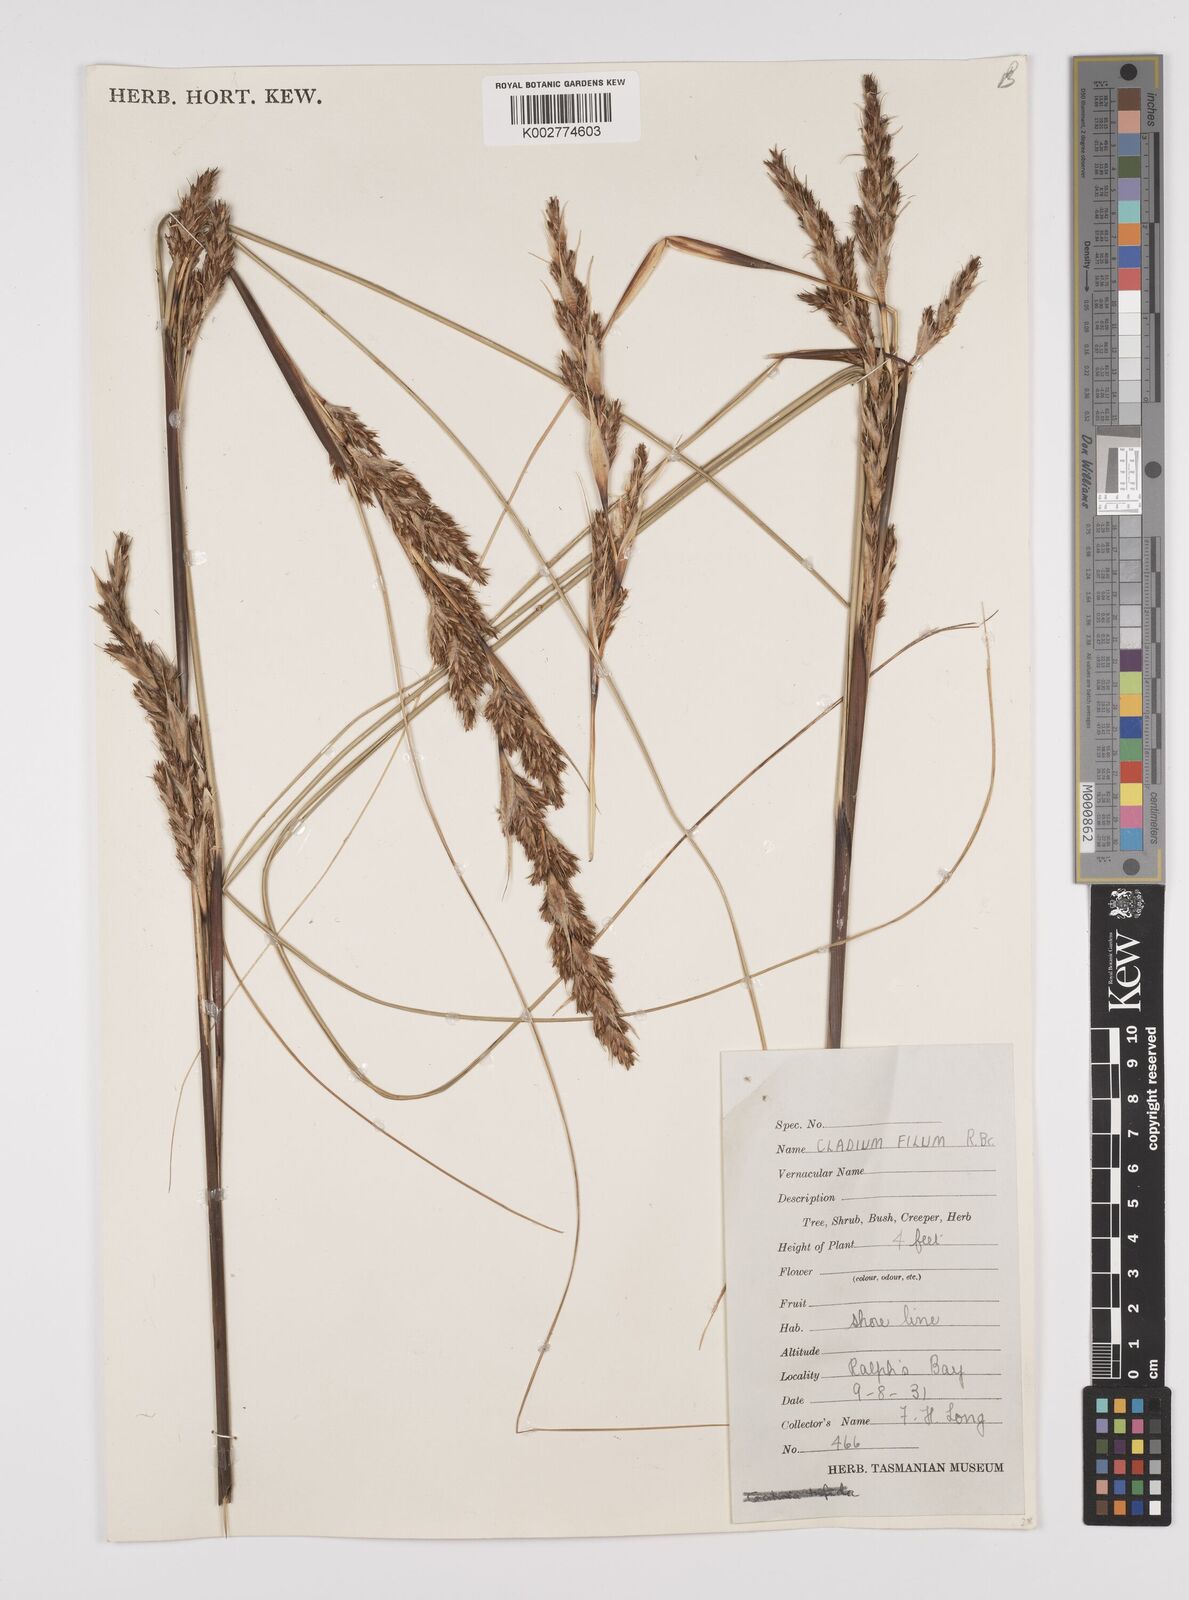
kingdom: Plantae
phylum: Tracheophyta
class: Liliopsida
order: Poales
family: Cyperaceae
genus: Gahnia
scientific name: Gahnia filum
